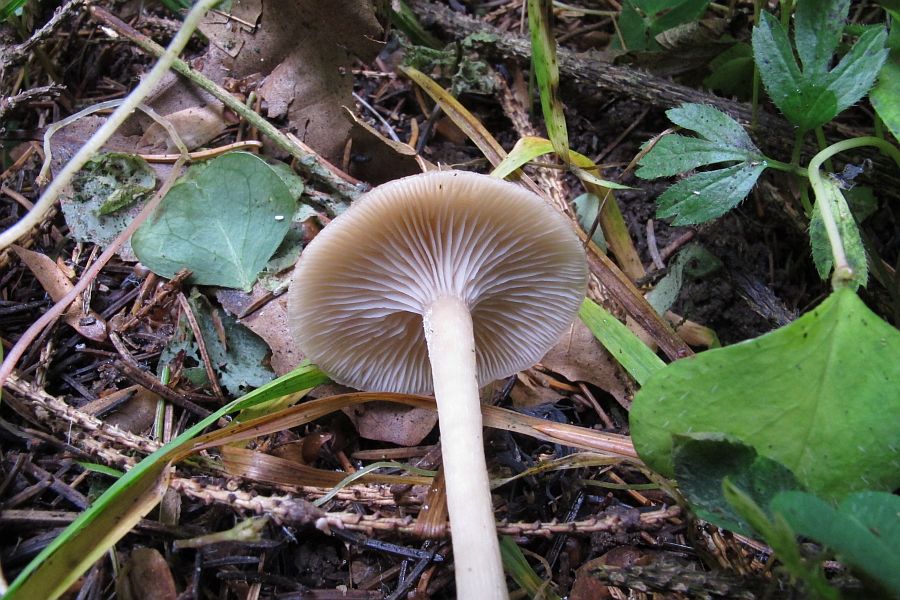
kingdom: Fungi
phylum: Basidiomycota
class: Agaricomycetes
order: Agaricales
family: Tricholomataceae
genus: Clitocybe
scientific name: Clitocybe fragrans
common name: vellugtende tragthat
